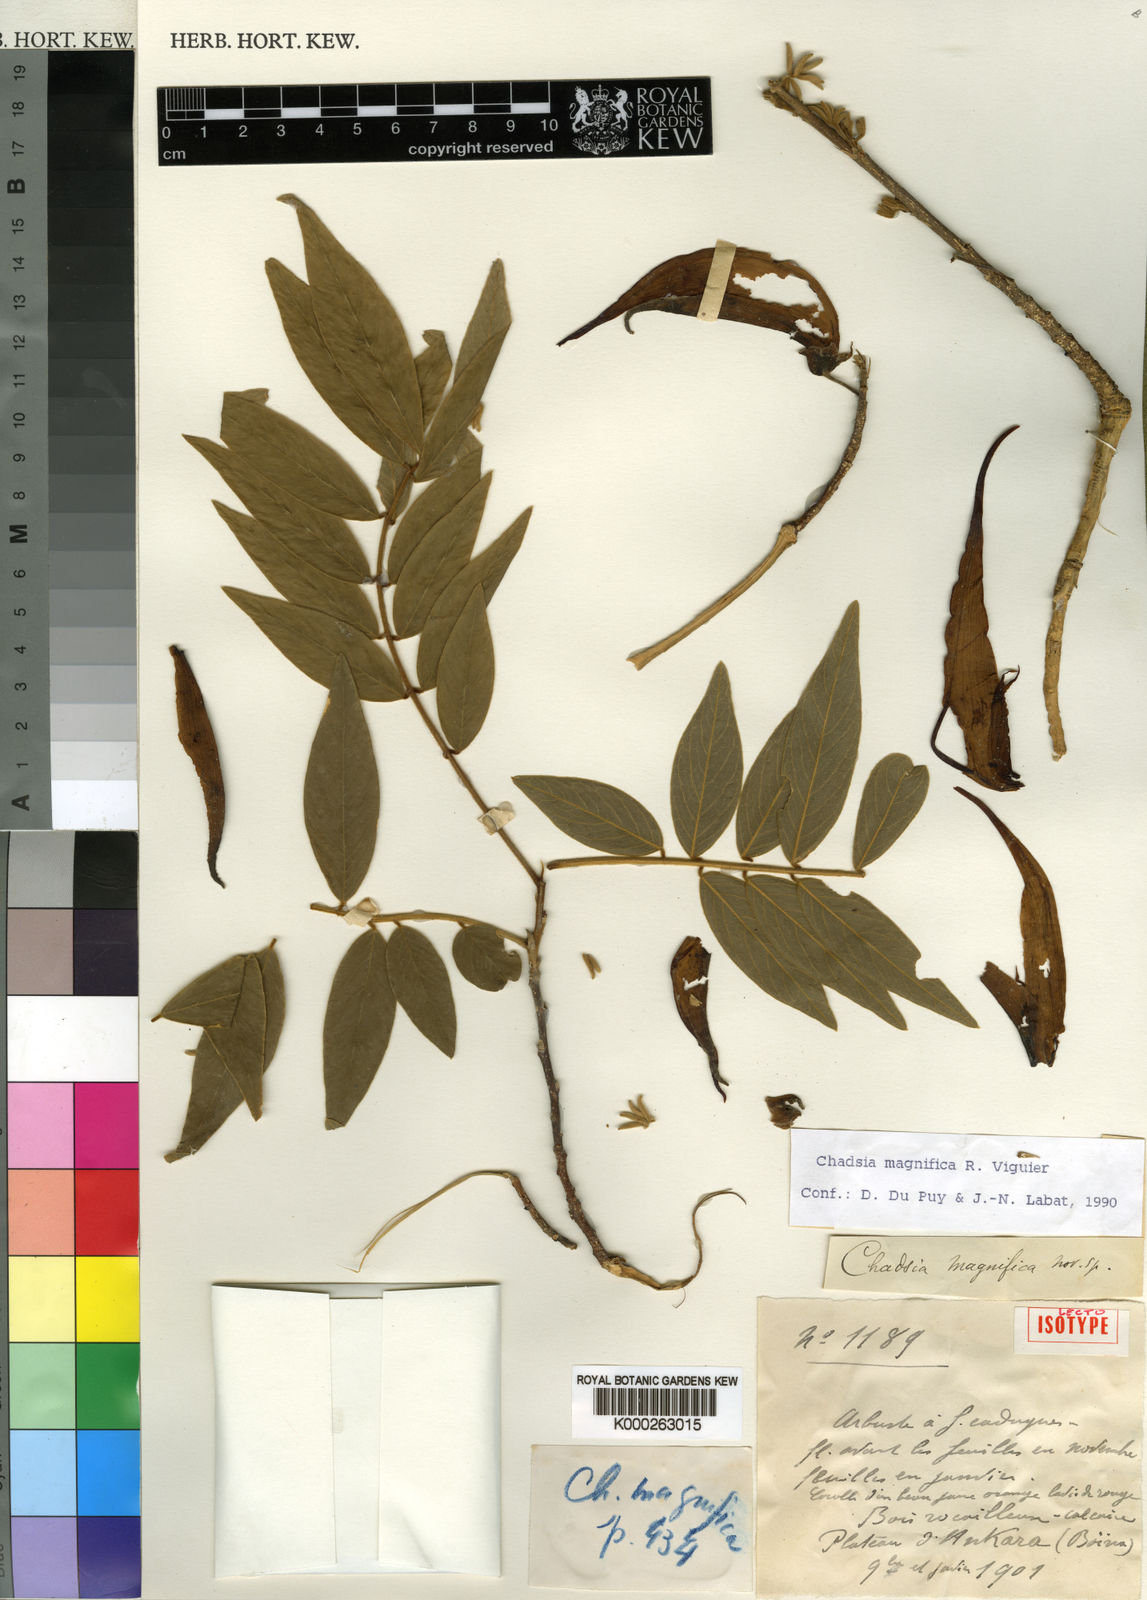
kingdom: Plantae
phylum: Tracheophyta
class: Magnoliopsida
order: Fabales
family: Fabaceae
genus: Chadsia
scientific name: Chadsia magnifica
